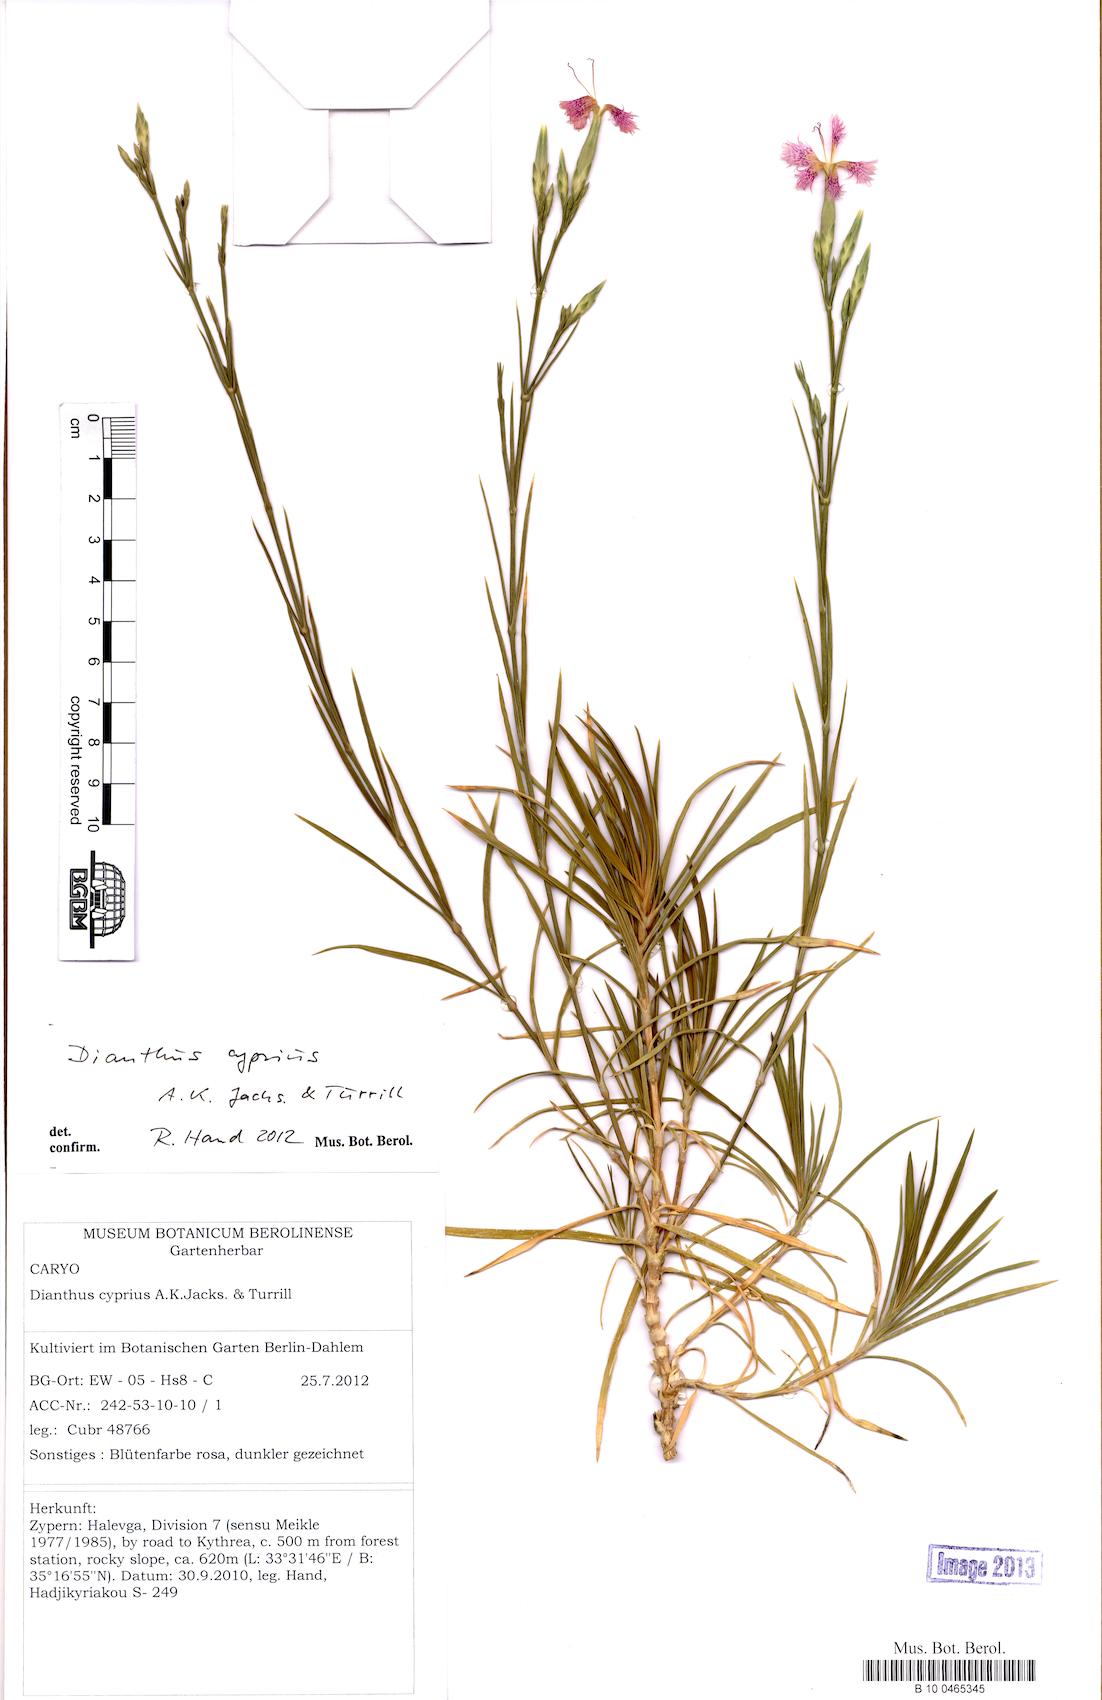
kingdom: Plantae
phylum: Tracheophyta
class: Magnoliopsida
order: Caryophyllales
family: Caryophyllaceae
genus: Dianthus
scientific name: Dianthus cyprius
